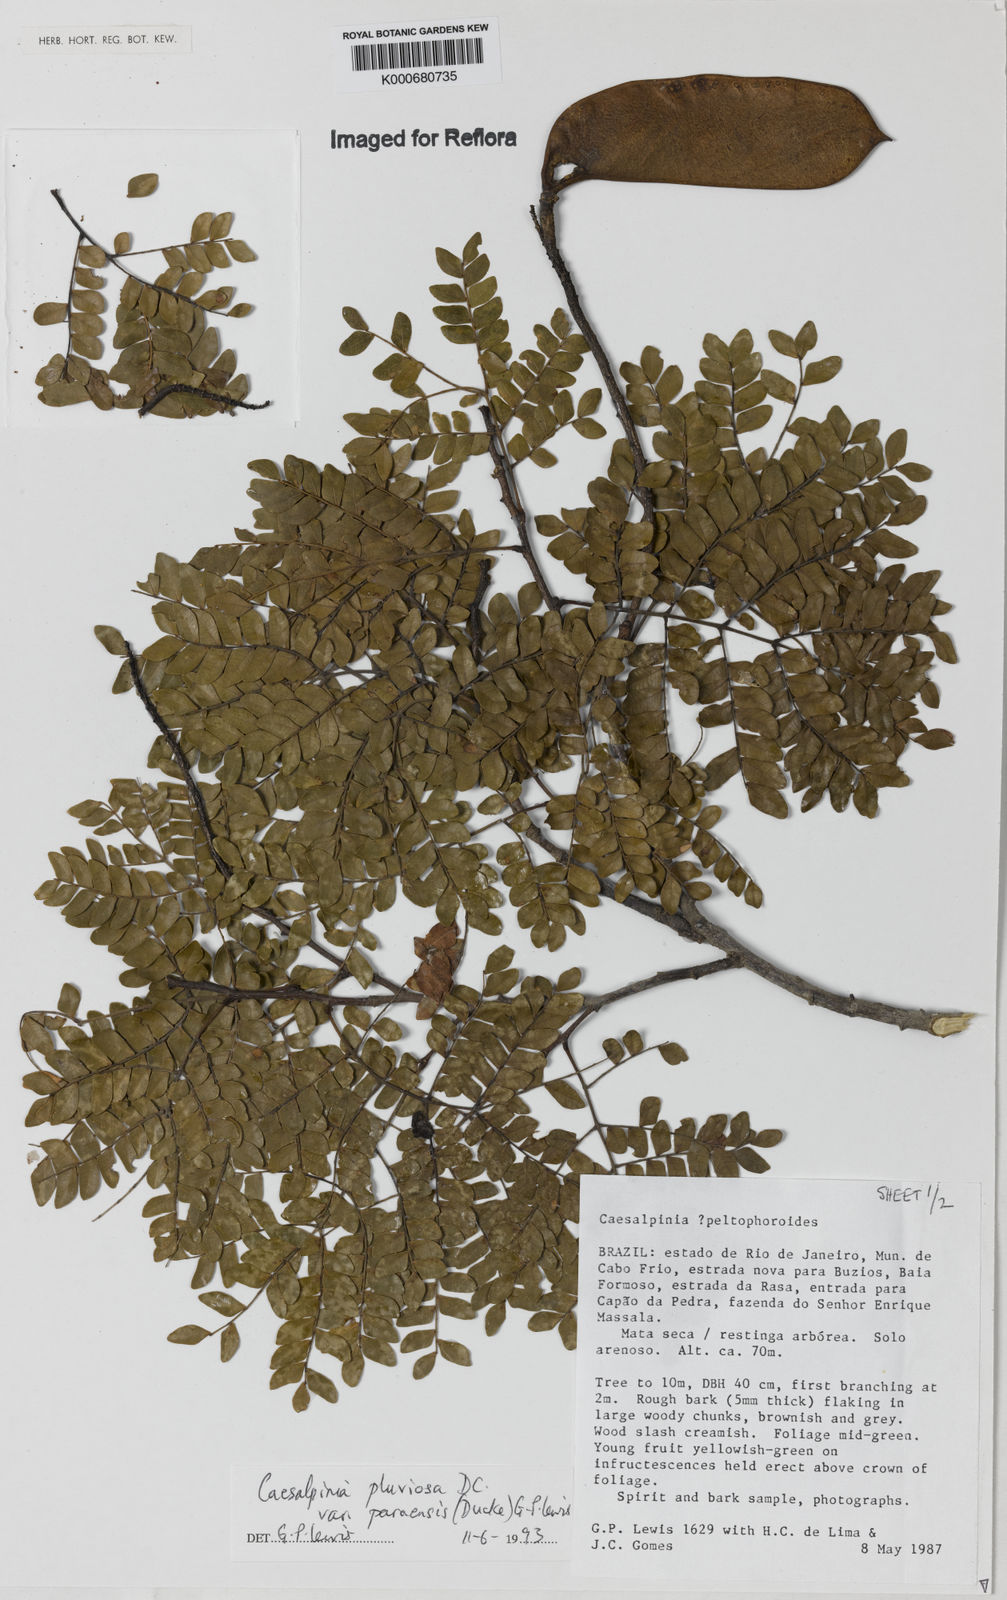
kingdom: Plantae
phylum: Tracheophyta
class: Magnoliopsida
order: Fabales
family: Fabaceae
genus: Cenostigma
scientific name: Cenostigma pluviosum
